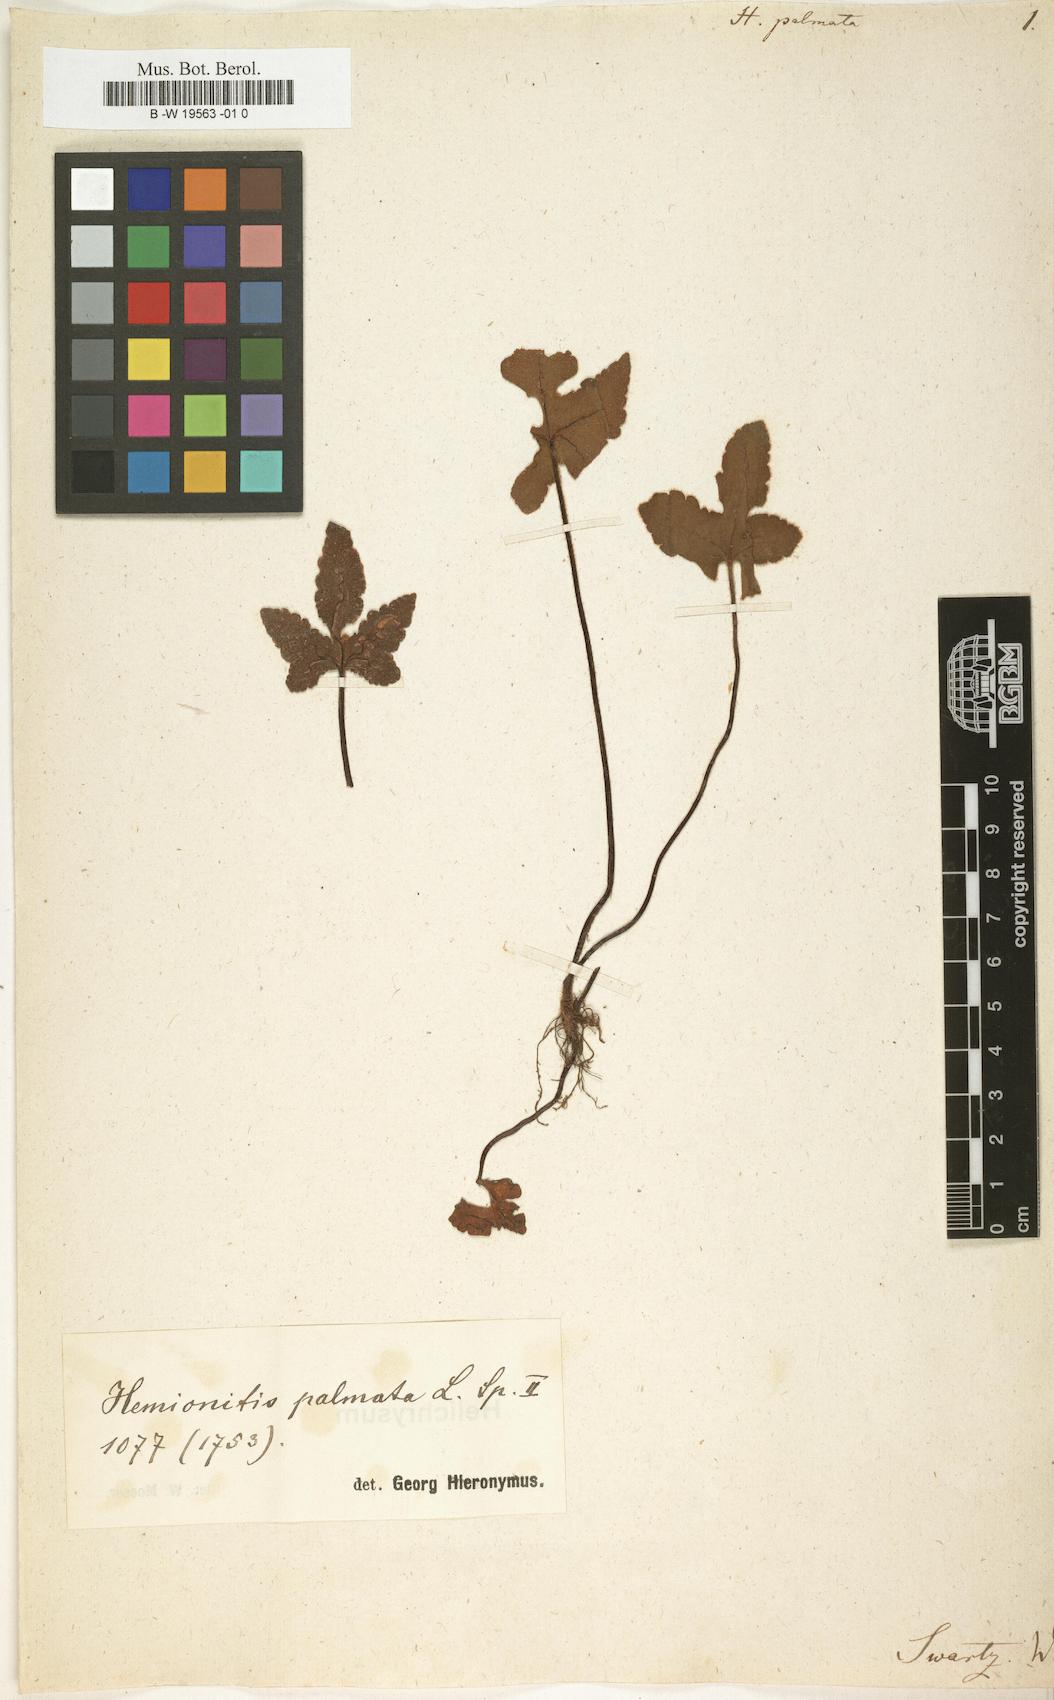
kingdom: Plantae
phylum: Tracheophyta
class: Polypodiopsida
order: Polypodiales
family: Pteridaceae
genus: Hemionitis
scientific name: Hemionitis palmata
